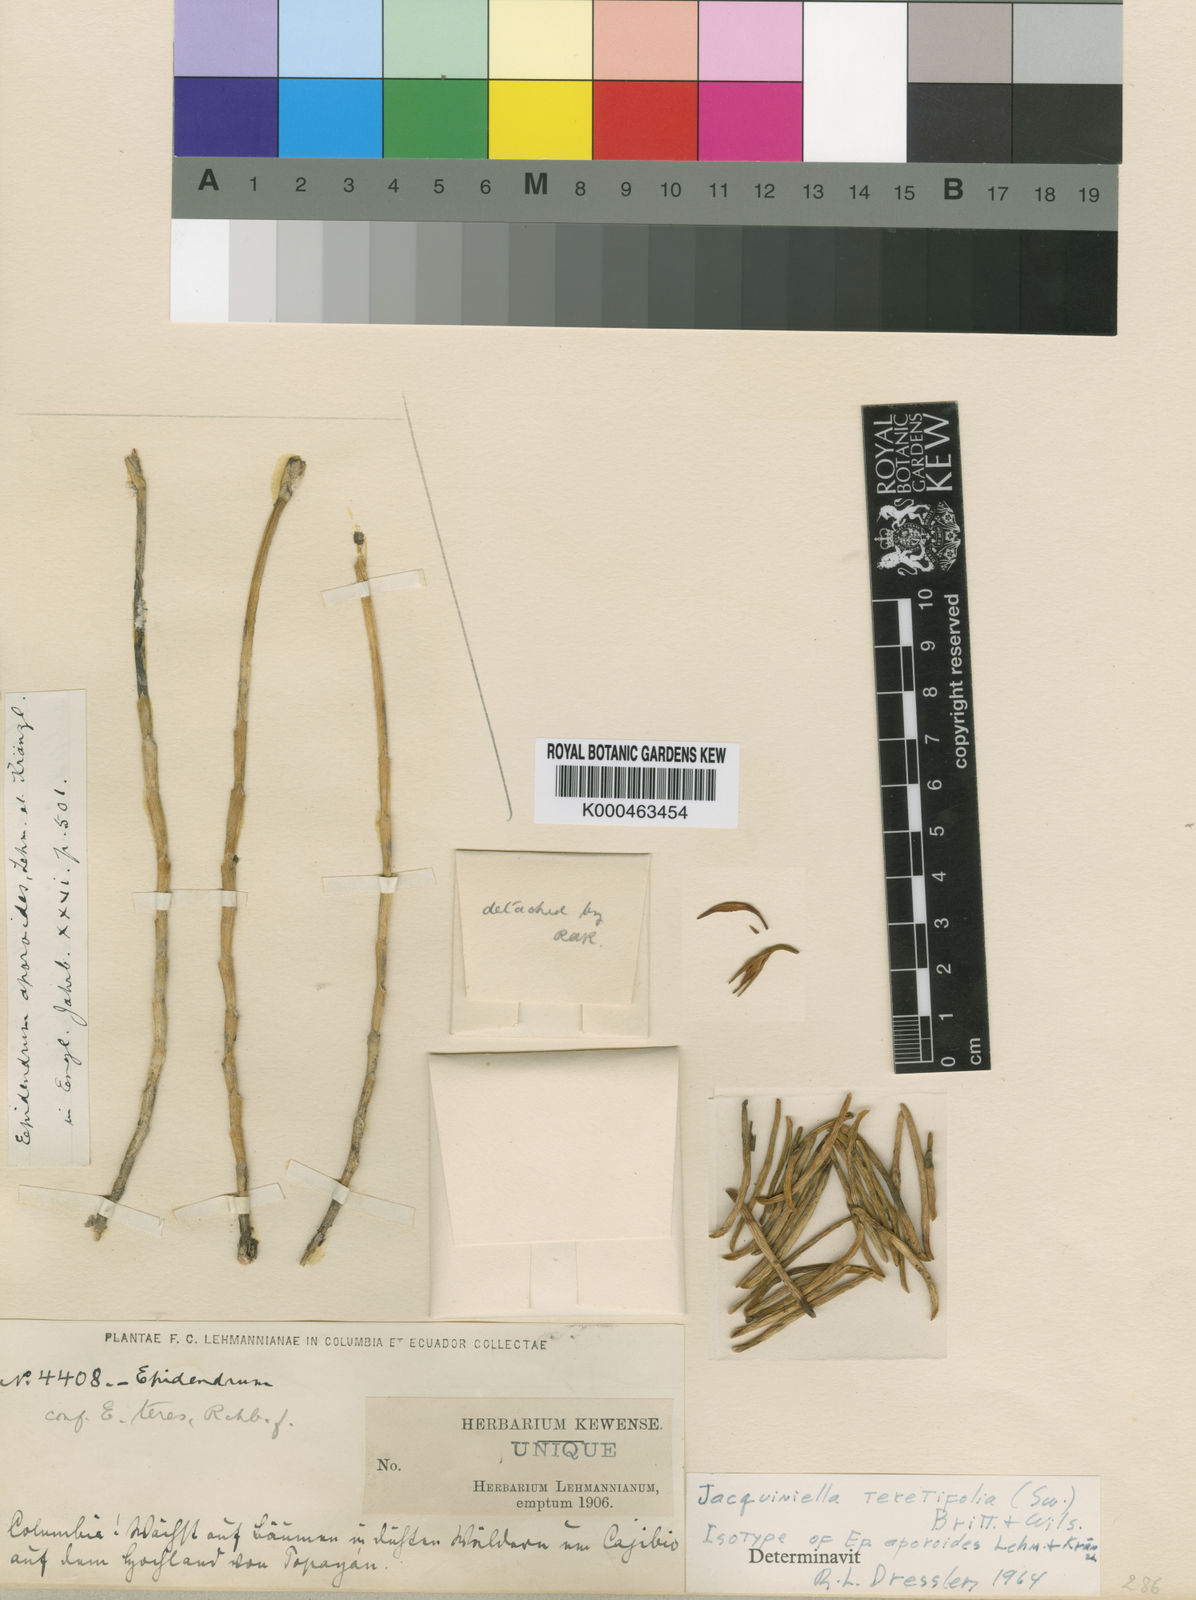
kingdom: Plantae
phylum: Tracheophyta
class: Liliopsida
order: Asparagales
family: Orchidaceae
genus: Jacquiniella
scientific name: Jacquiniella
